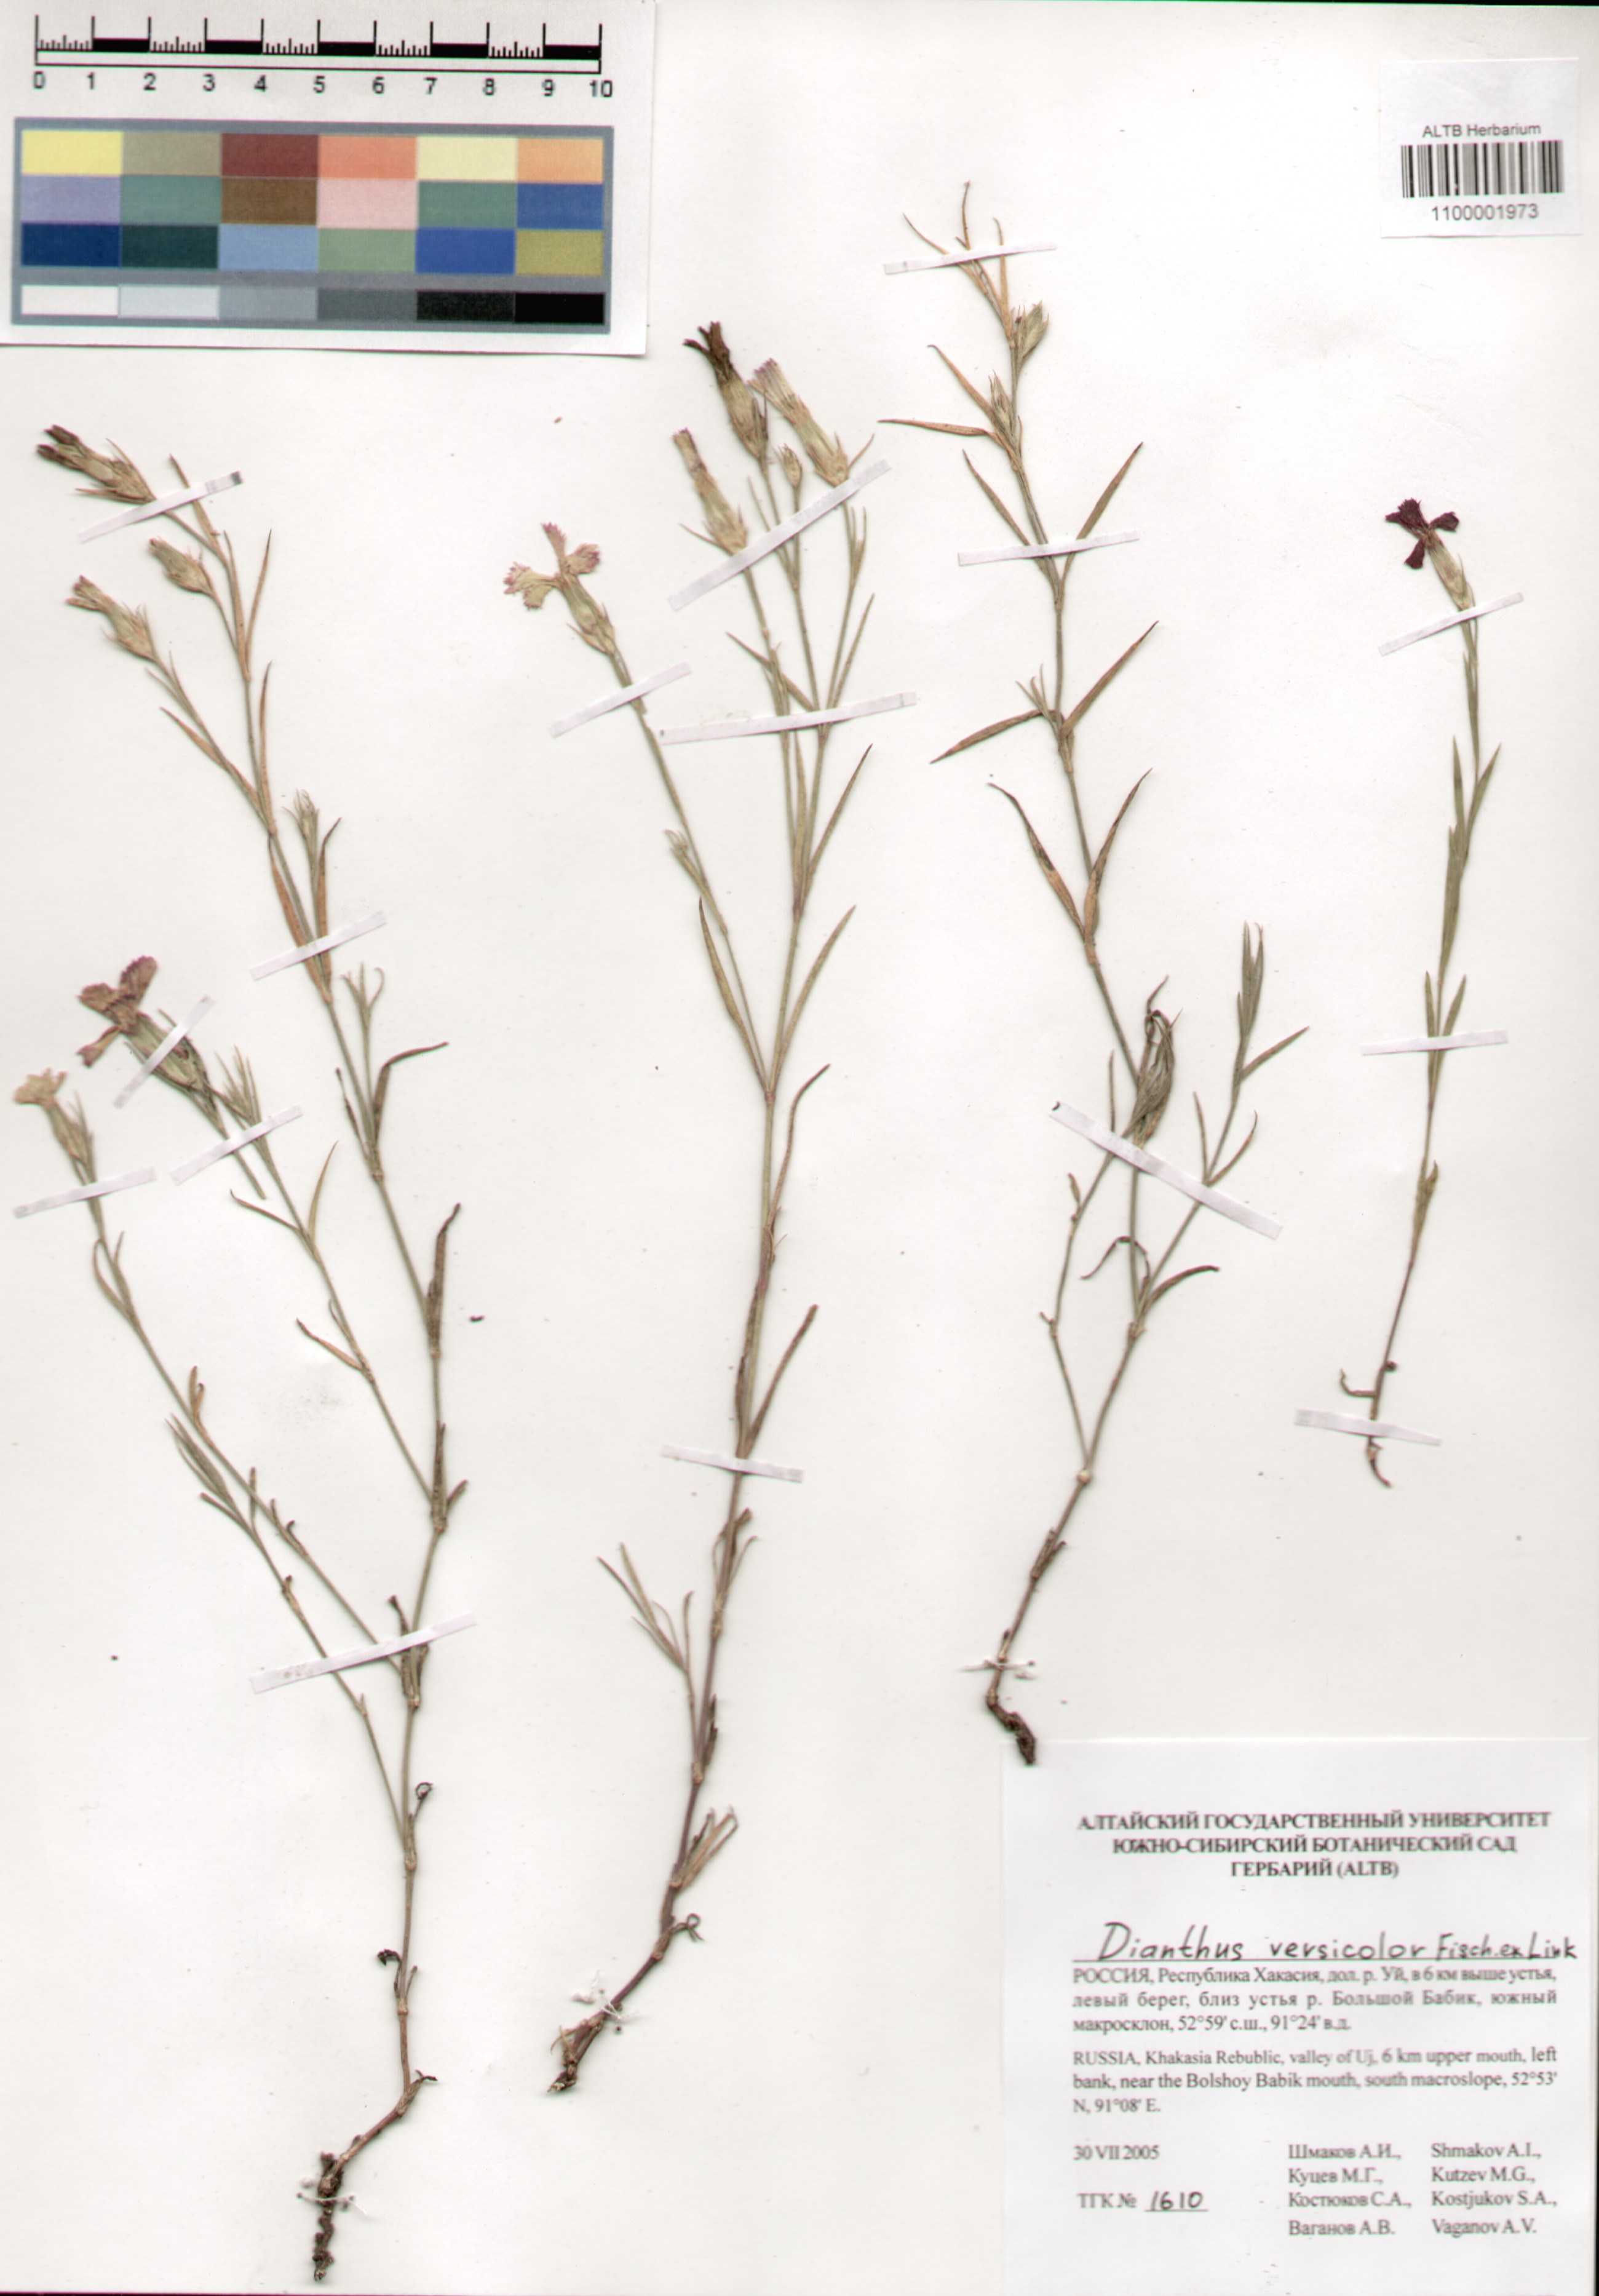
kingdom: Plantae
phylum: Tracheophyta
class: Magnoliopsida
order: Caryophyllales
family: Caryophyllaceae
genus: Dianthus
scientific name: Dianthus chinensis
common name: Rainbow pink
